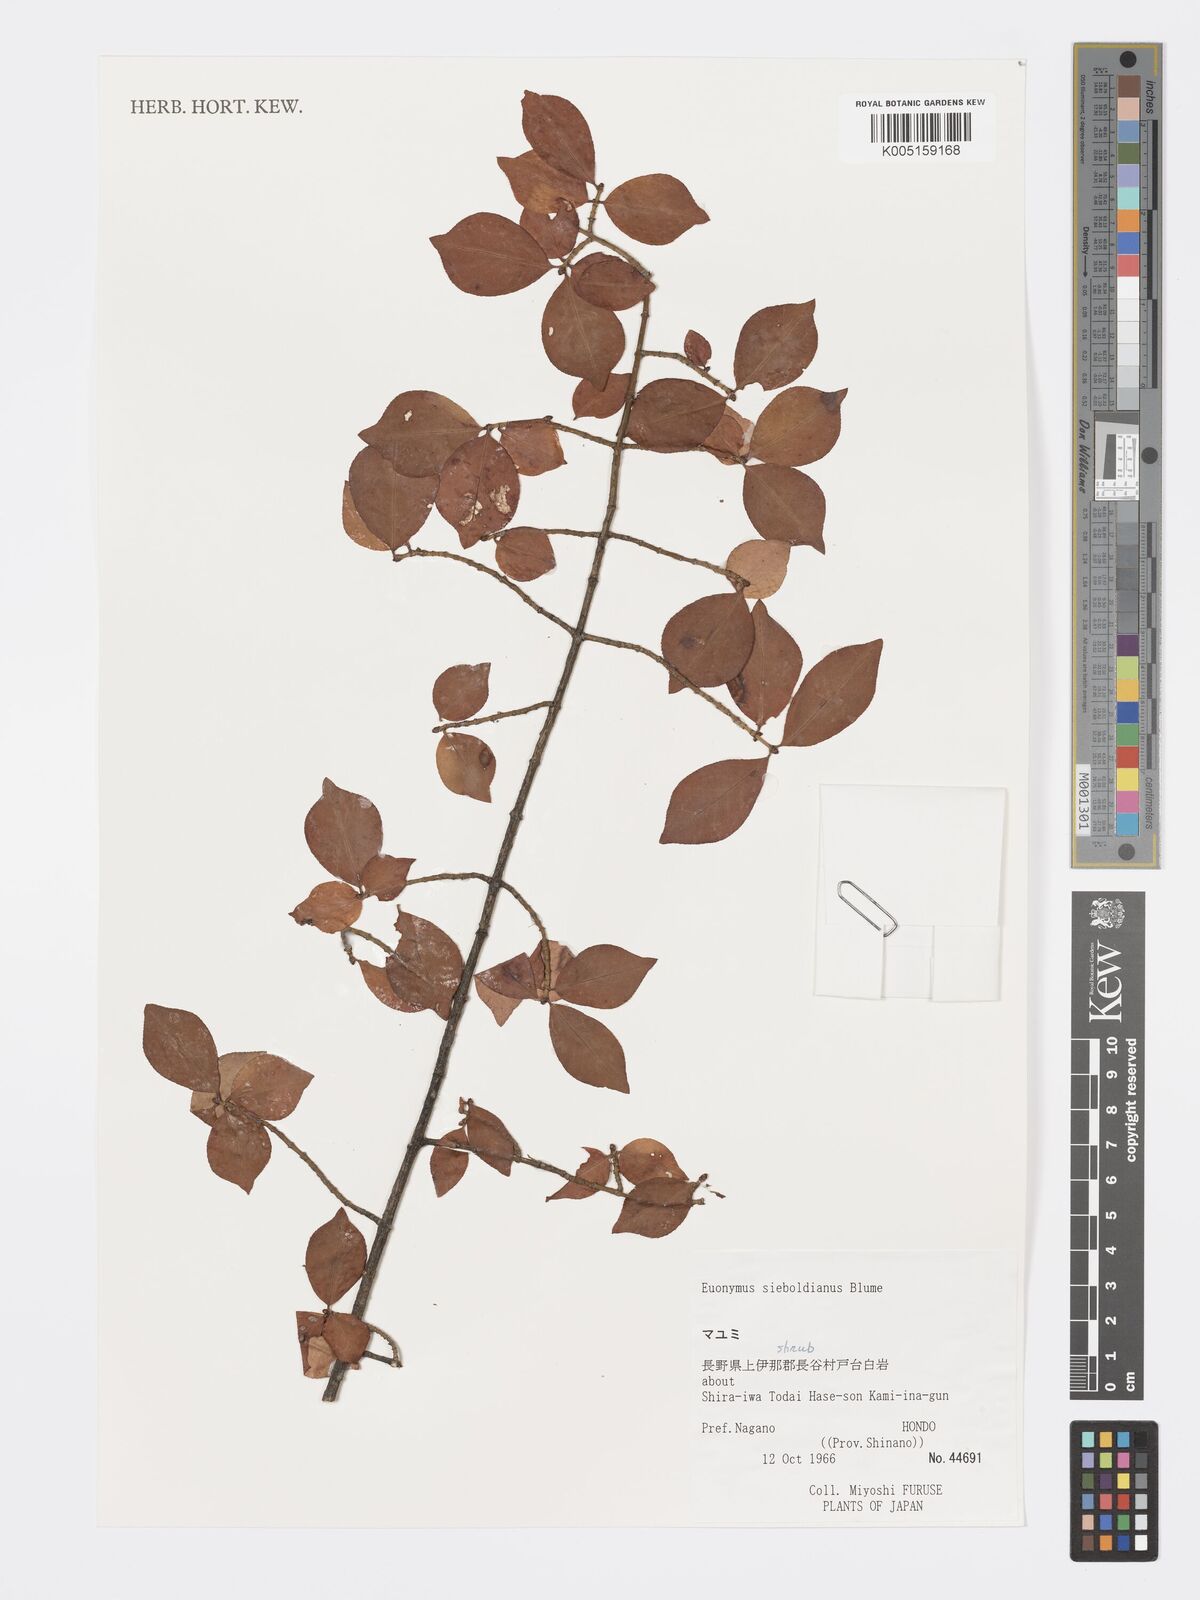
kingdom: Plantae
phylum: Tracheophyta
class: Magnoliopsida
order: Celastrales
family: Celastraceae
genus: Euonymus
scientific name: Euonymus hamiltonianus
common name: Hamilton's spindletree
